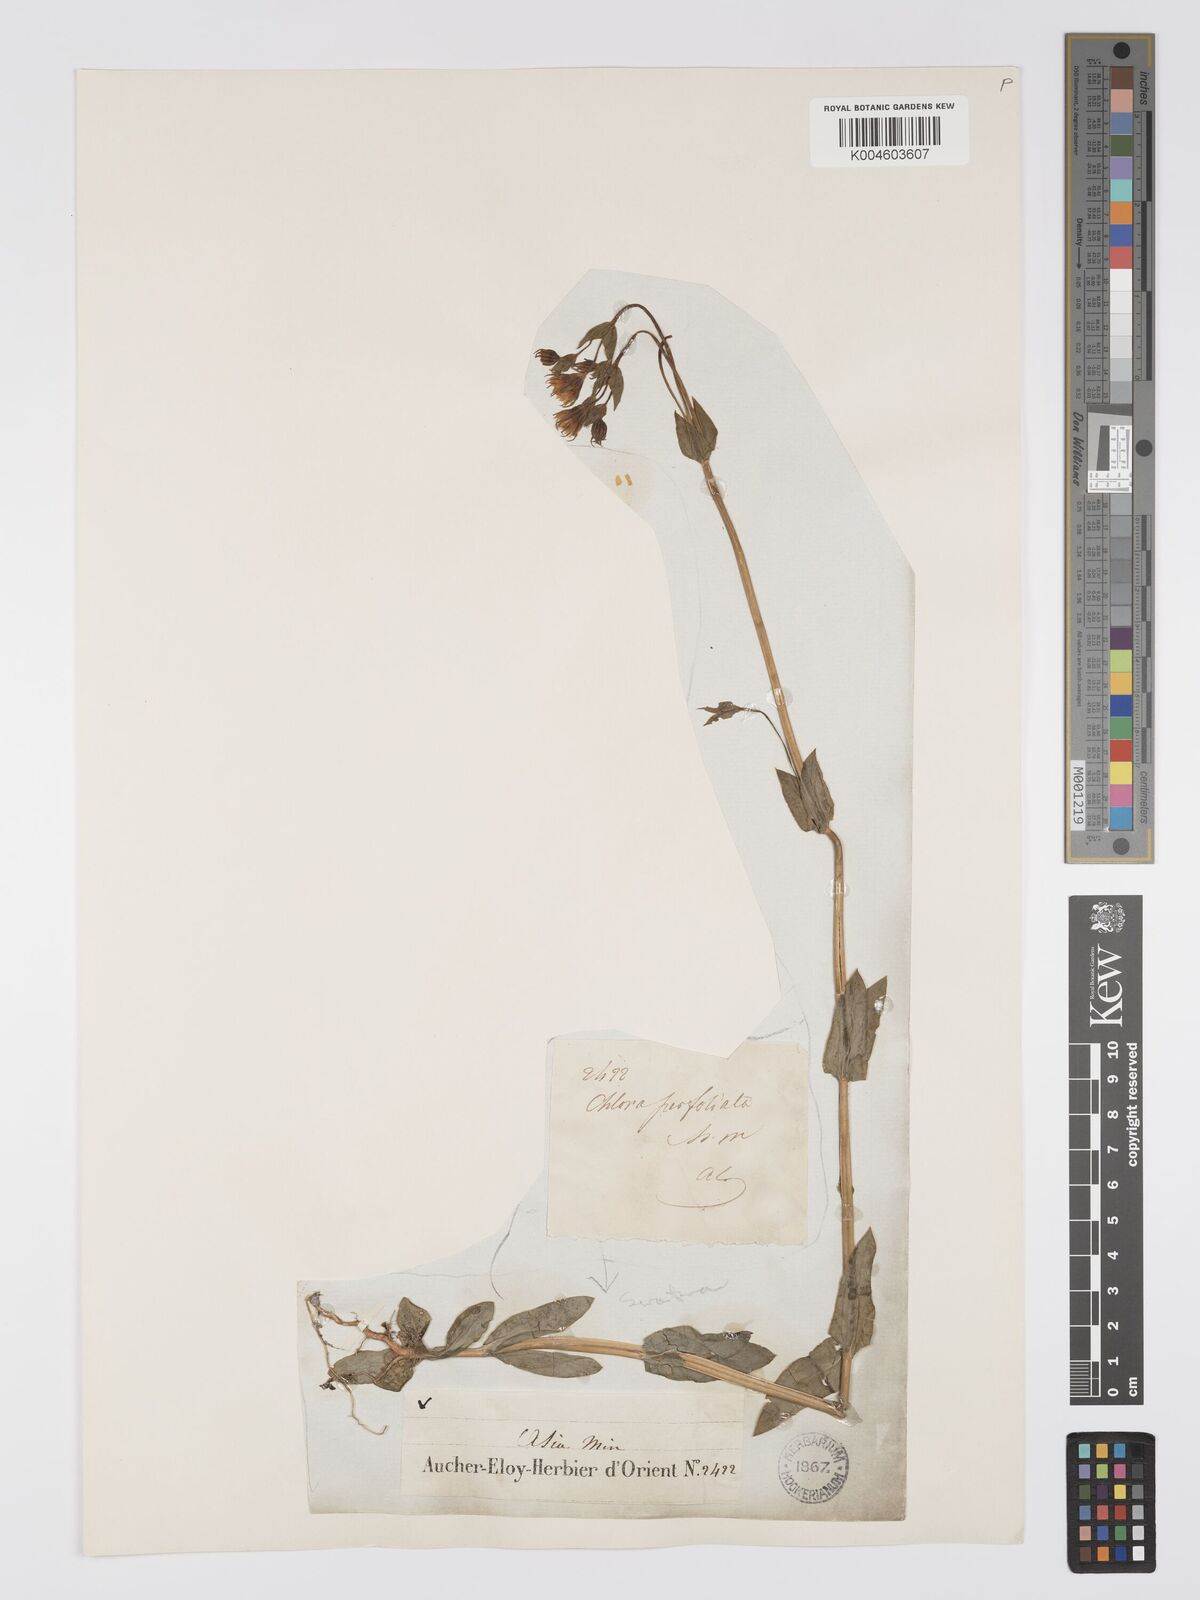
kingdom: Plantae
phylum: Tracheophyta
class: Magnoliopsida
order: Gentianales
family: Gentianaceae
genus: Blackstonia
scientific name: Blackstonia acuminata
